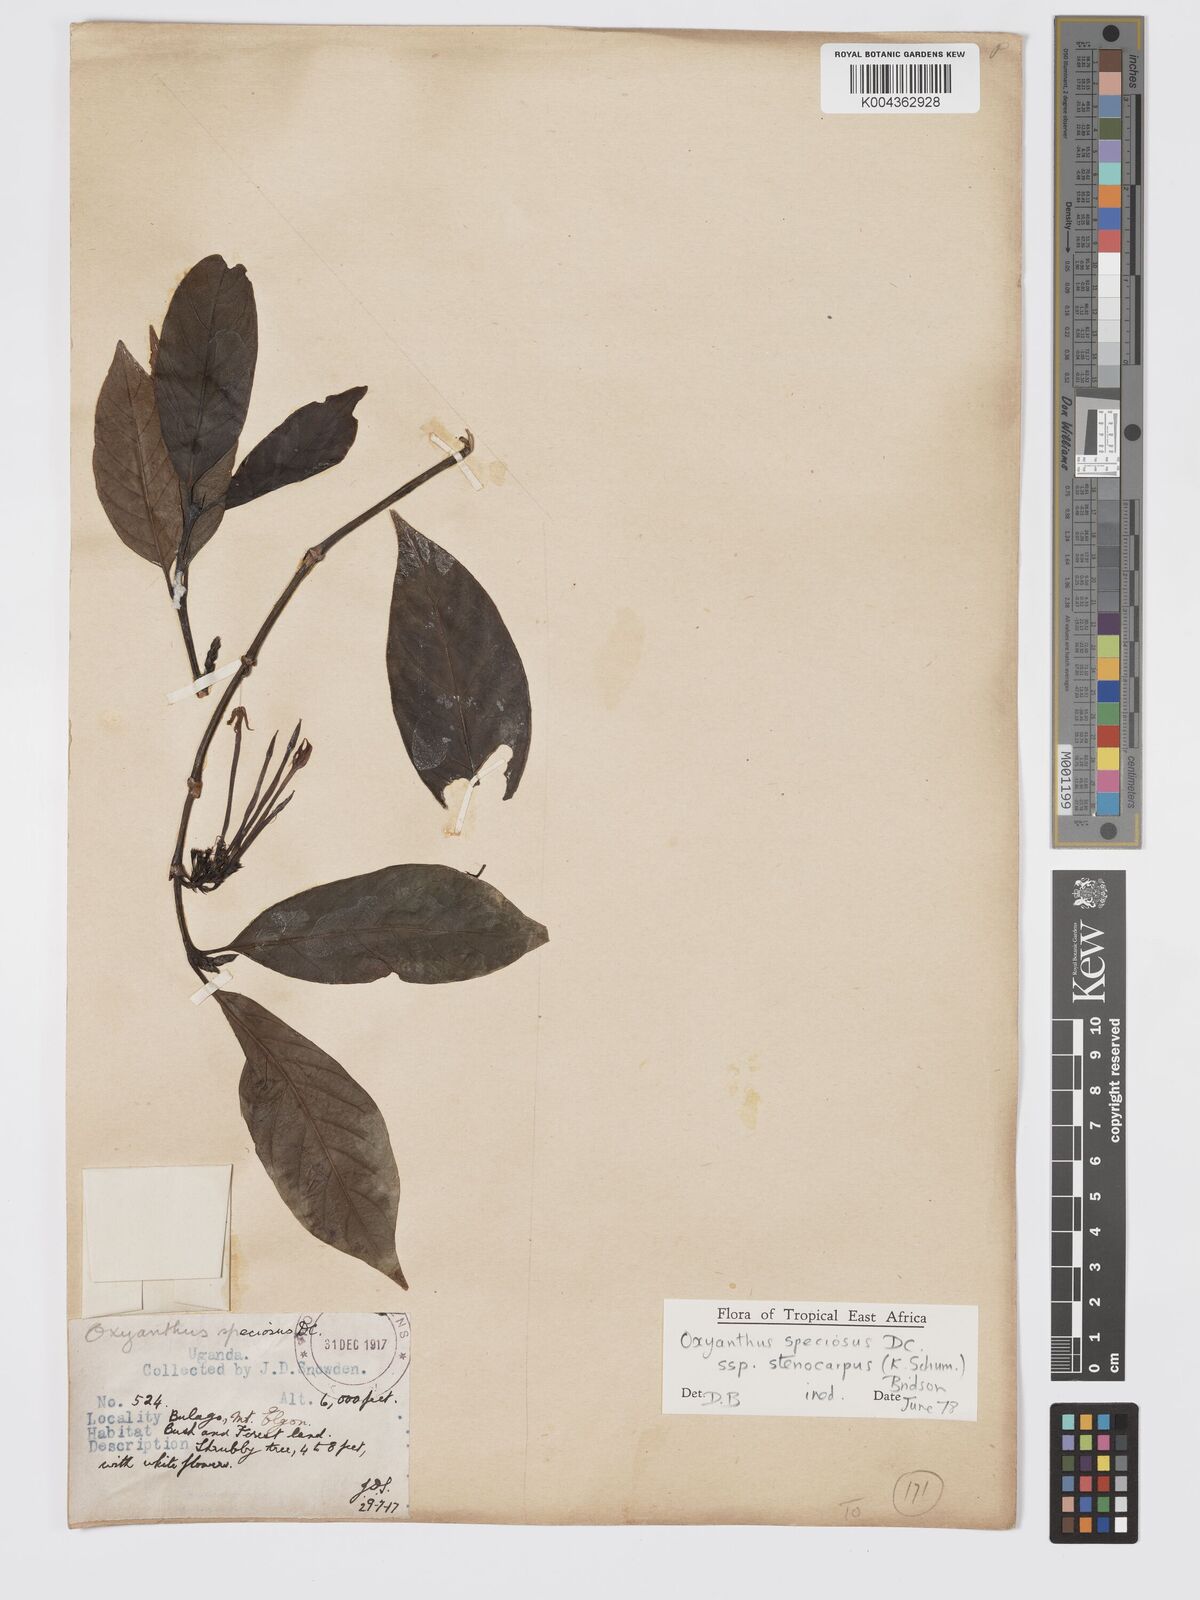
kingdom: Plantae
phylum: Tracheophyta
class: Magnoliopsida
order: Gentianales
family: Rubiaceae
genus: Oxyanthus
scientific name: Oxyanthus
